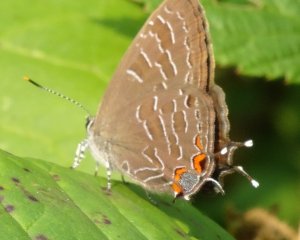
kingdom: Animalia
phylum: Arthropoda
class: Insecta
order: Lepidoptera
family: Lycaenidae
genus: Satyrium
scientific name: Satyrium liparops
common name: Striped Hairstreak
